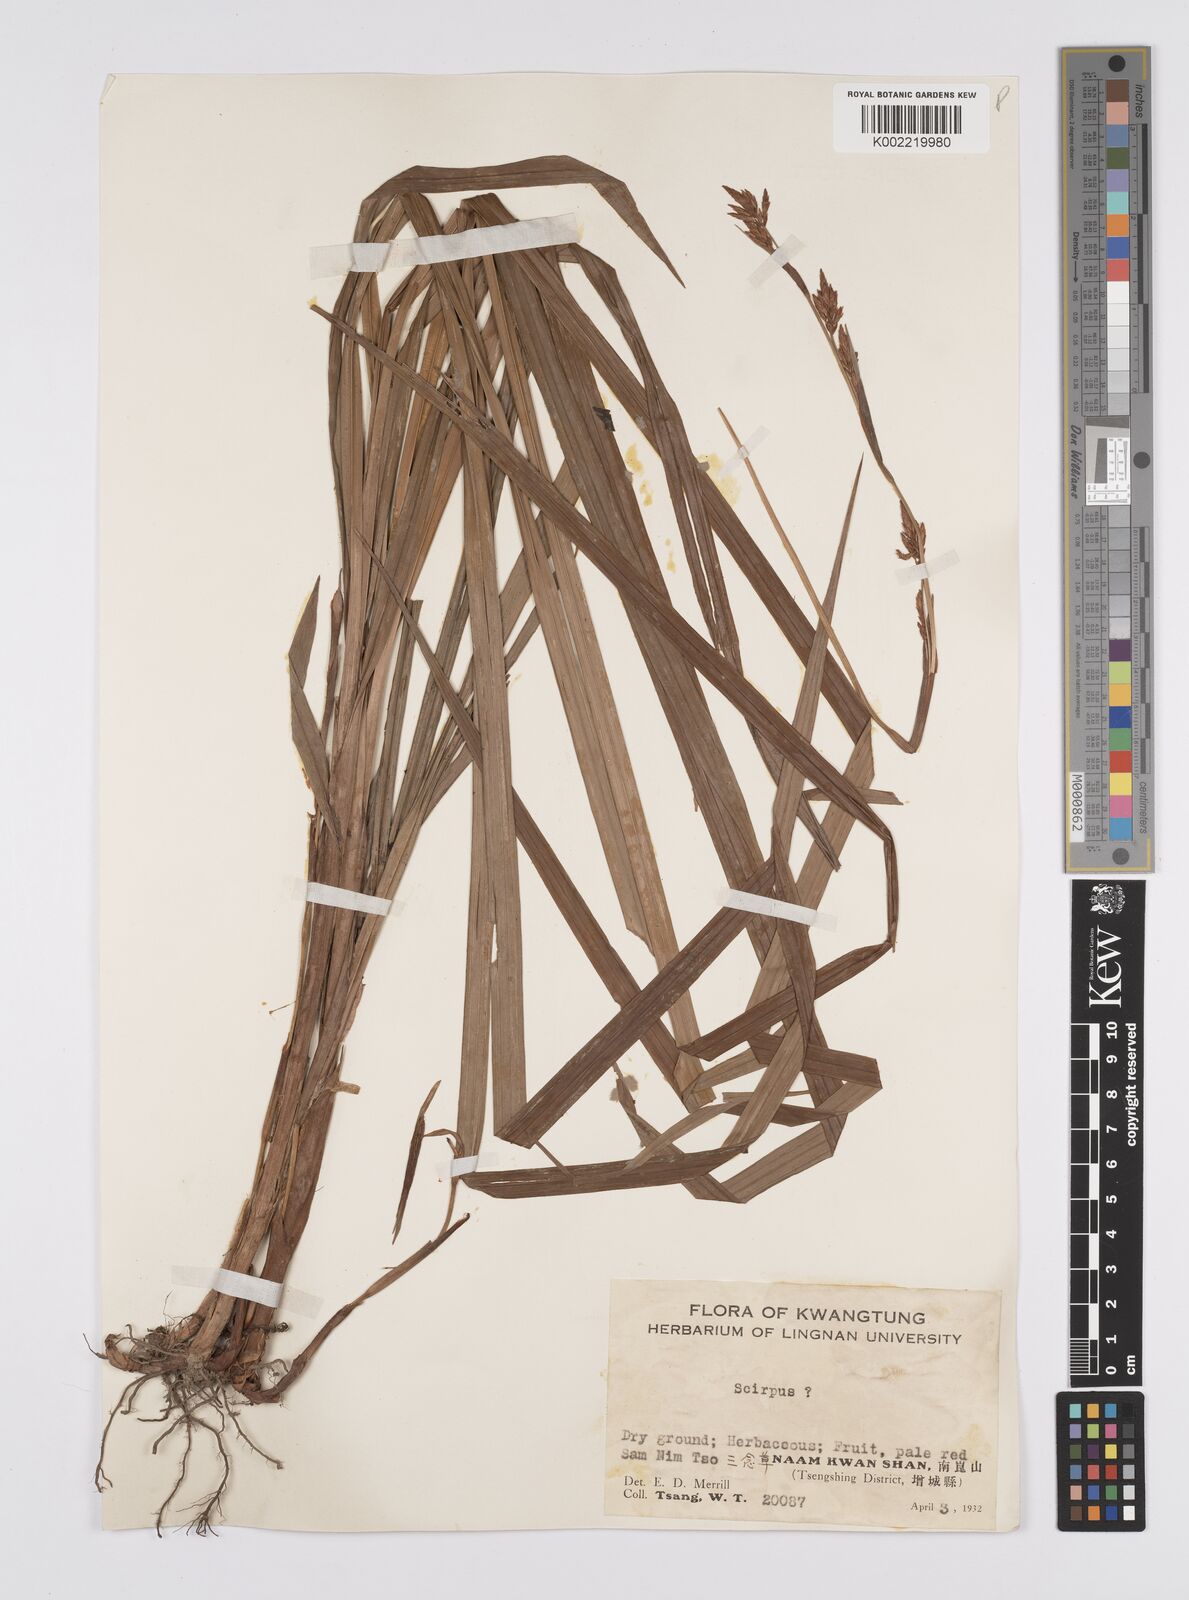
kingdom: Plantae
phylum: Tracheophyta
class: Liliopsida
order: Poales
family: Cyperaceae
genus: Carex
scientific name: Carex filicina
